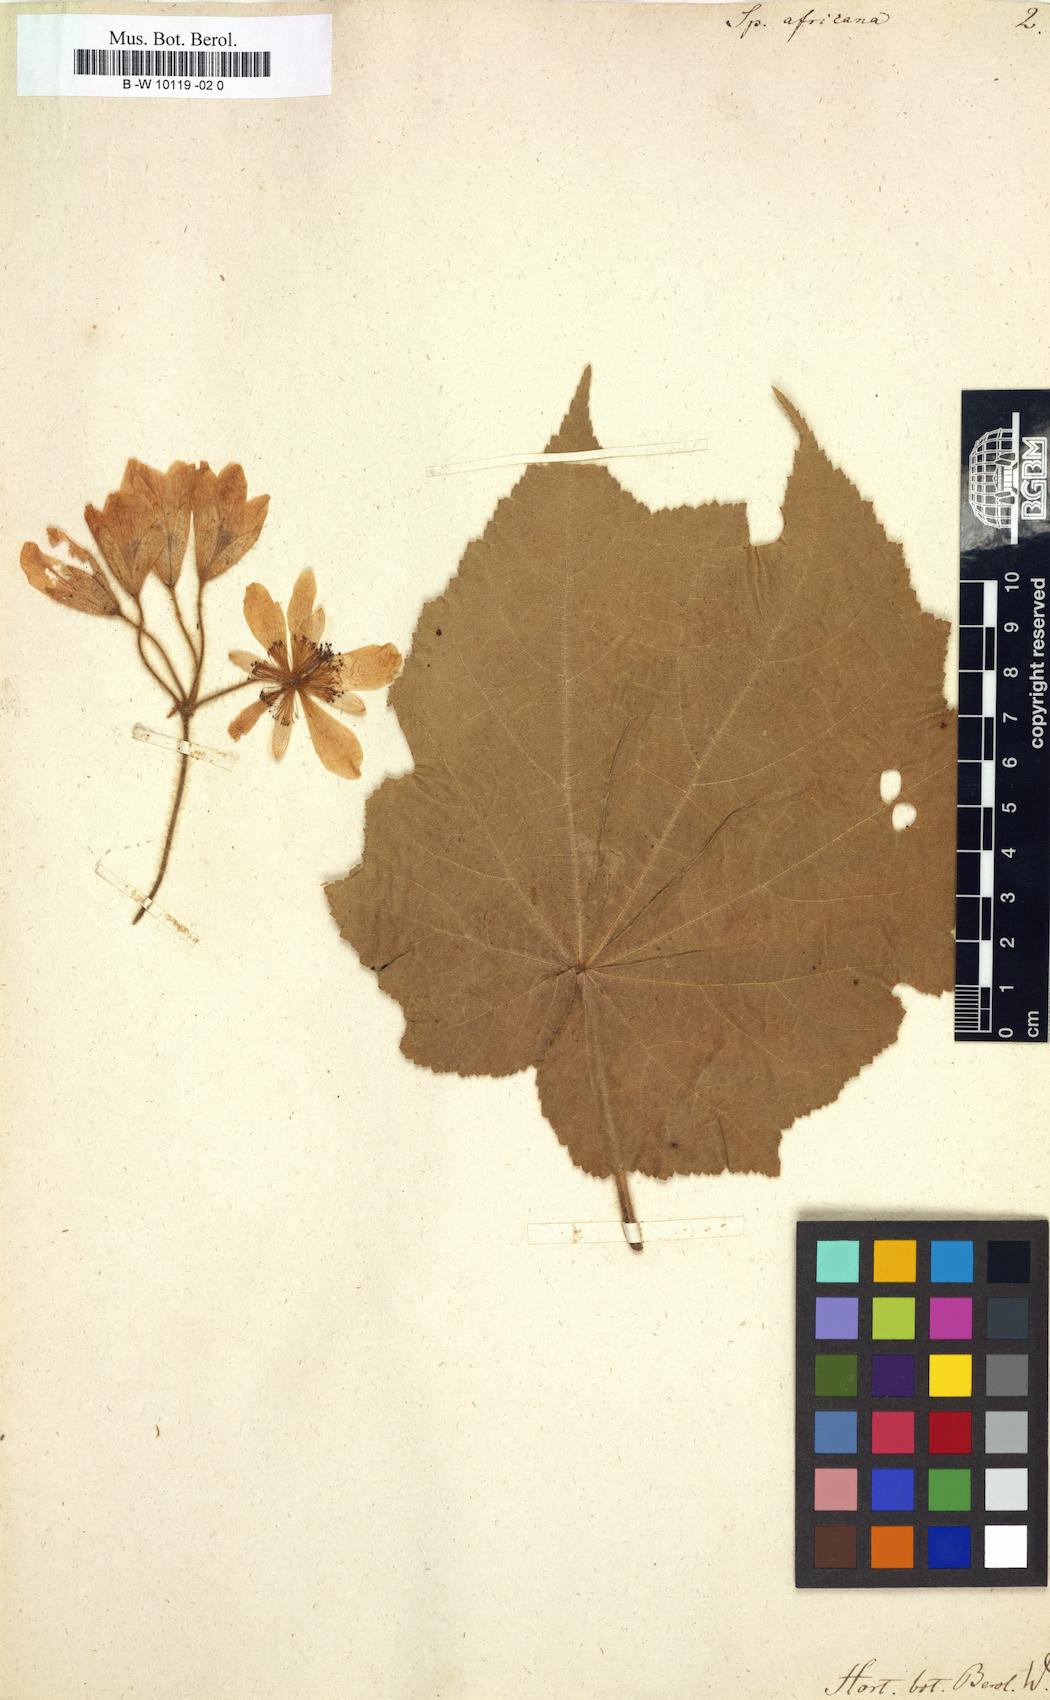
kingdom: Plantae
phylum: Tracheophyta
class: Magnoliopsida
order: Malvales
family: Malvaceae
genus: Sparrmannia
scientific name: Sparrmannia africana
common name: African-hemp
